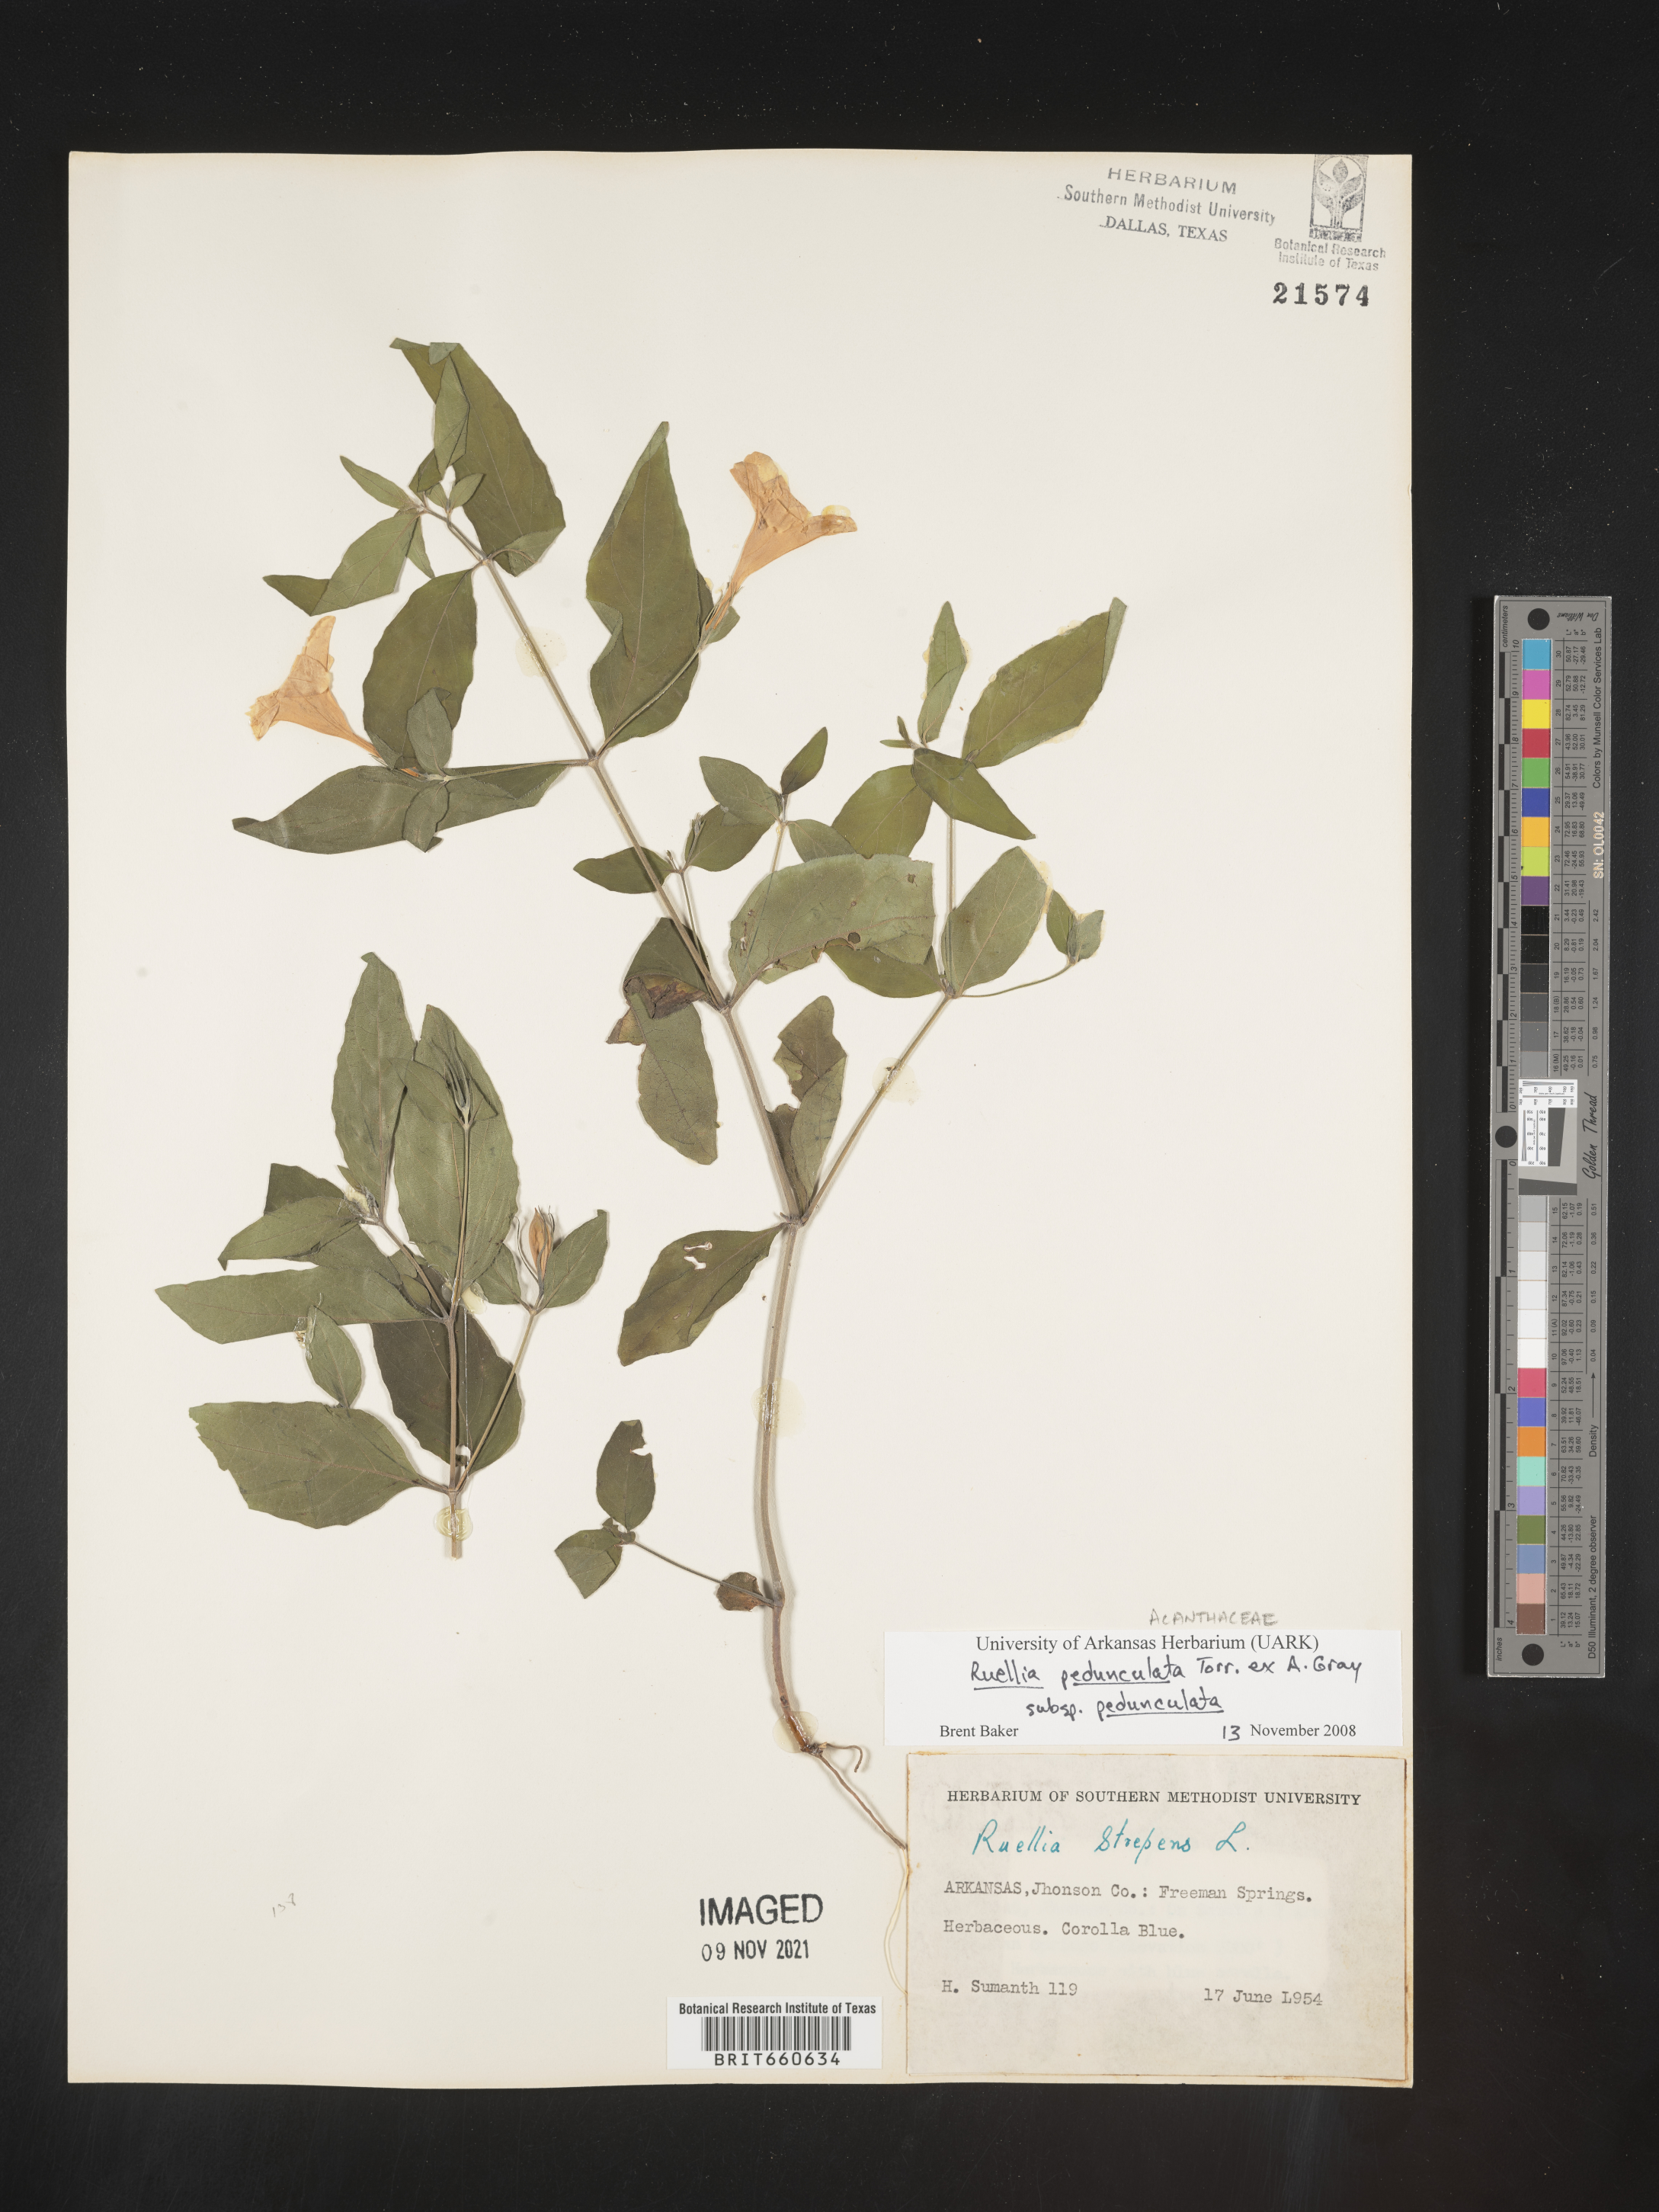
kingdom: Plantae
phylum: Tracheophyta
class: Magnoliopsida
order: Lamiales
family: Acanthaceae
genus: Ruellia
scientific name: Ruellia pedunculata
